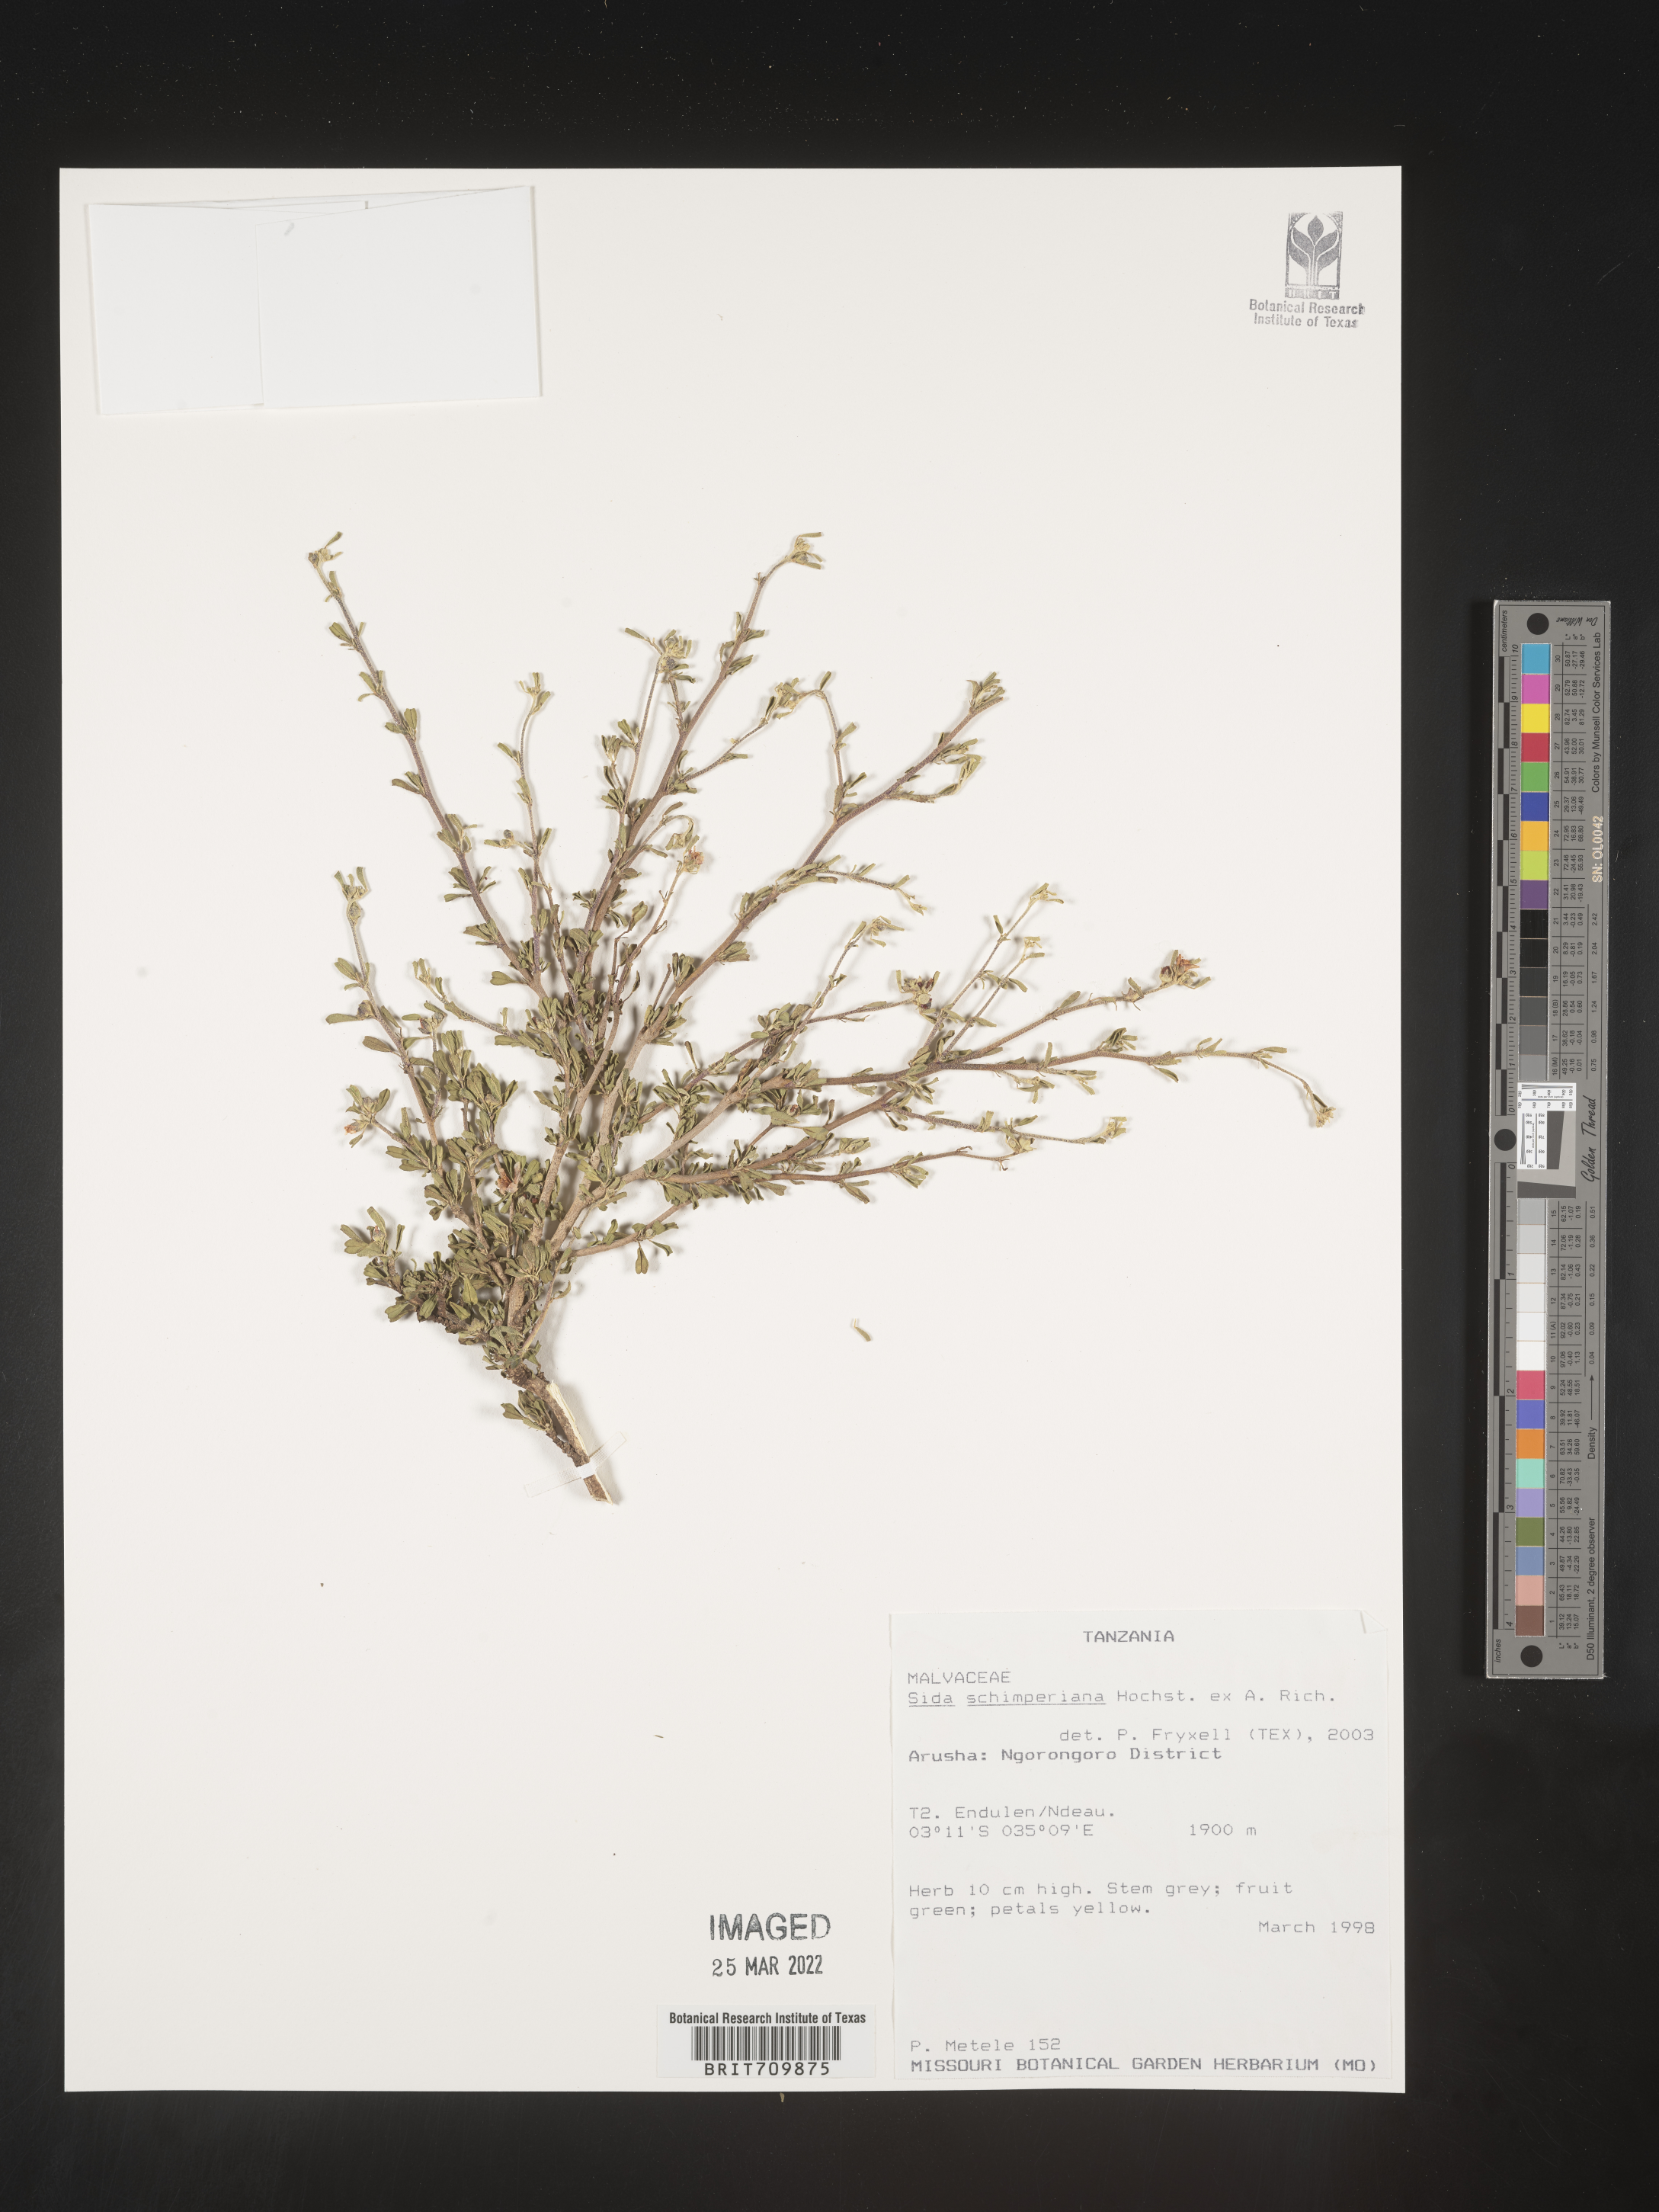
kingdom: Plantae
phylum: Tracheophyta
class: Magnoliopsida
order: Malvales
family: Malvaceae
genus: Sida
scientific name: Sida
